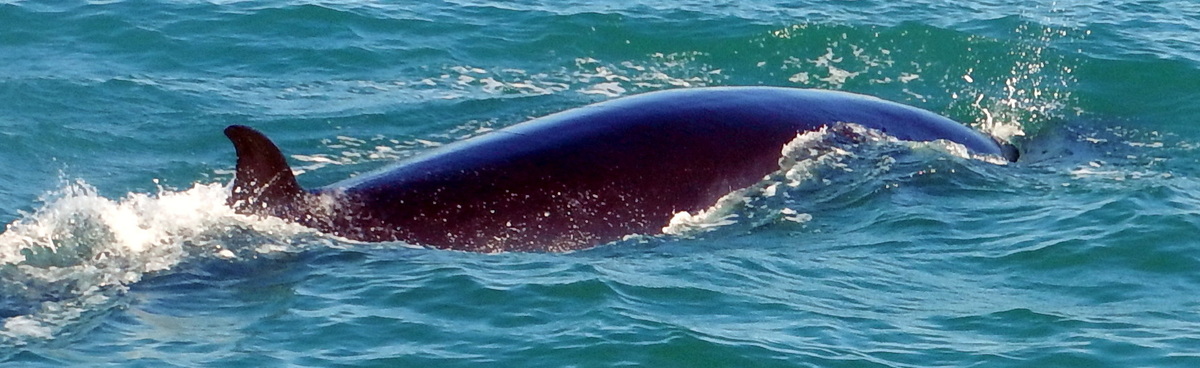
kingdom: Animalia
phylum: Chordata
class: Mammalia
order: Cetacea
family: Balaenopteridae
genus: Balaenoptera
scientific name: Balaenoptera edeni
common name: Bryde's whale
